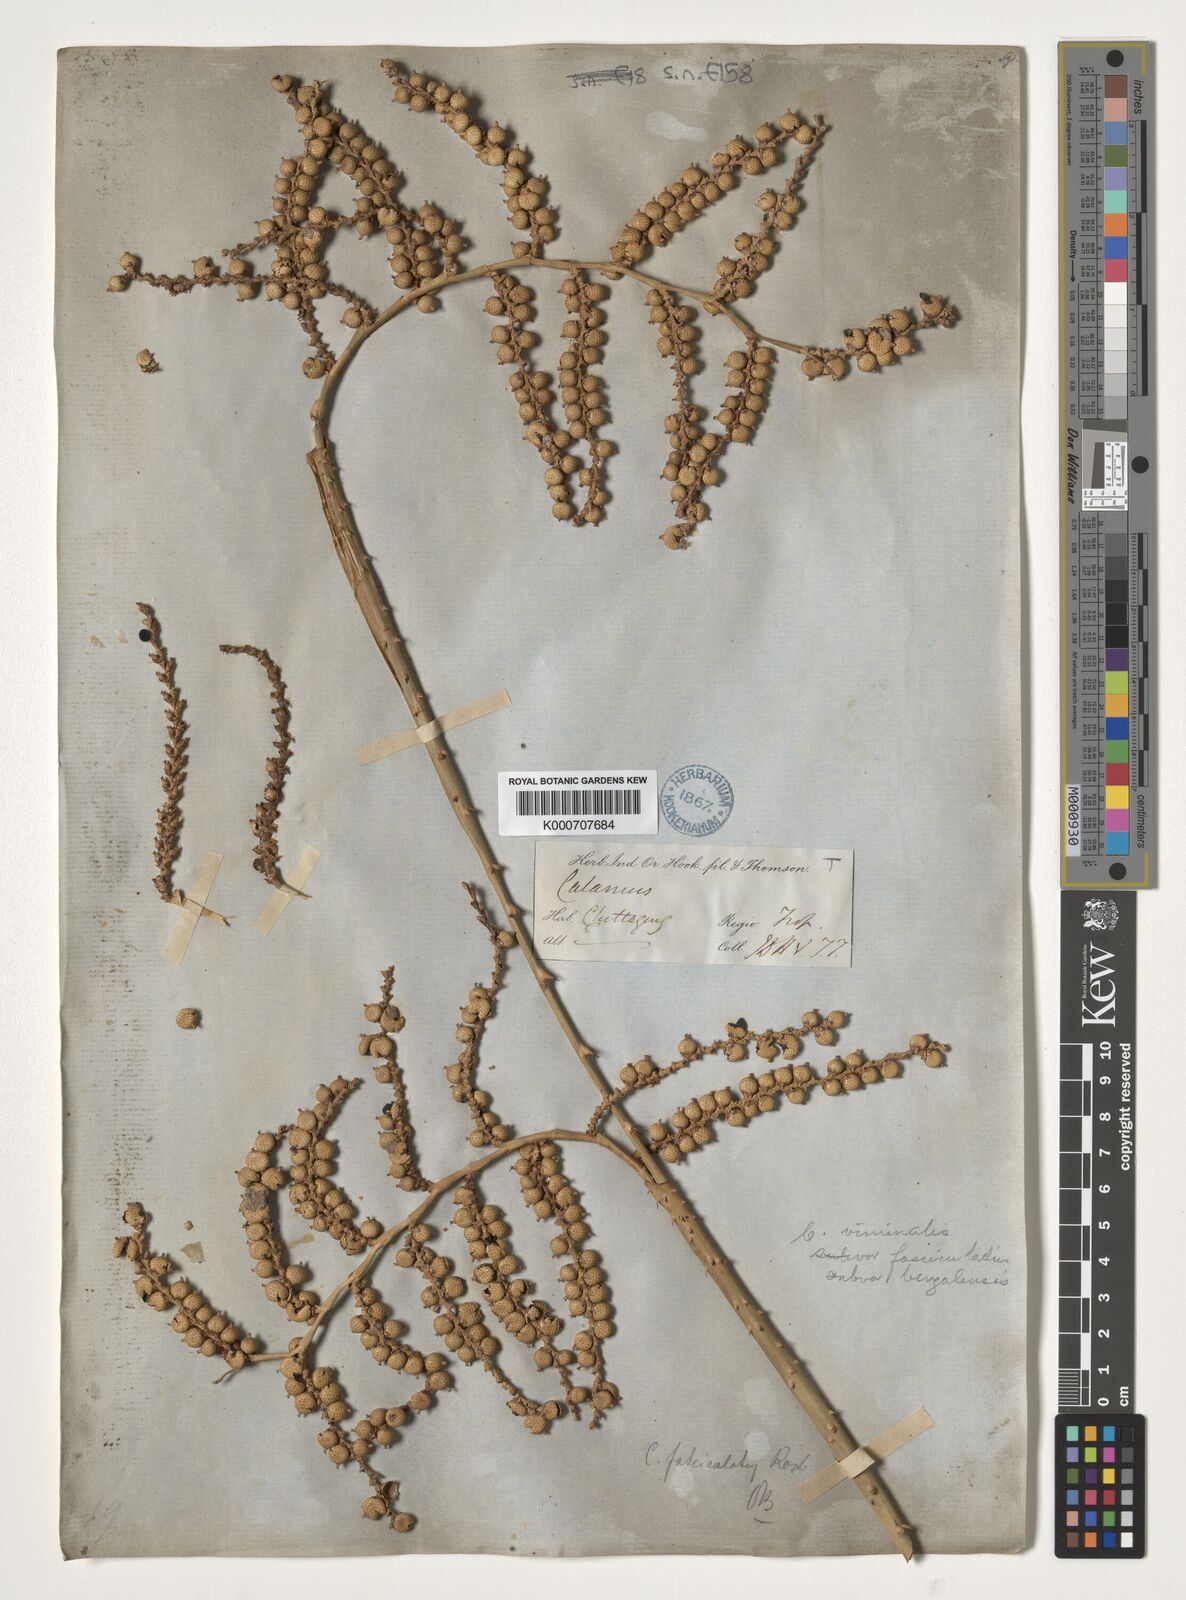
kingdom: Plantae
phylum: Tracheophyta
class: Liliopsida
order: Arecales
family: Arecaceae
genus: Calamus
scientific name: Calamus viminalis
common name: Osier-like rattan palm
